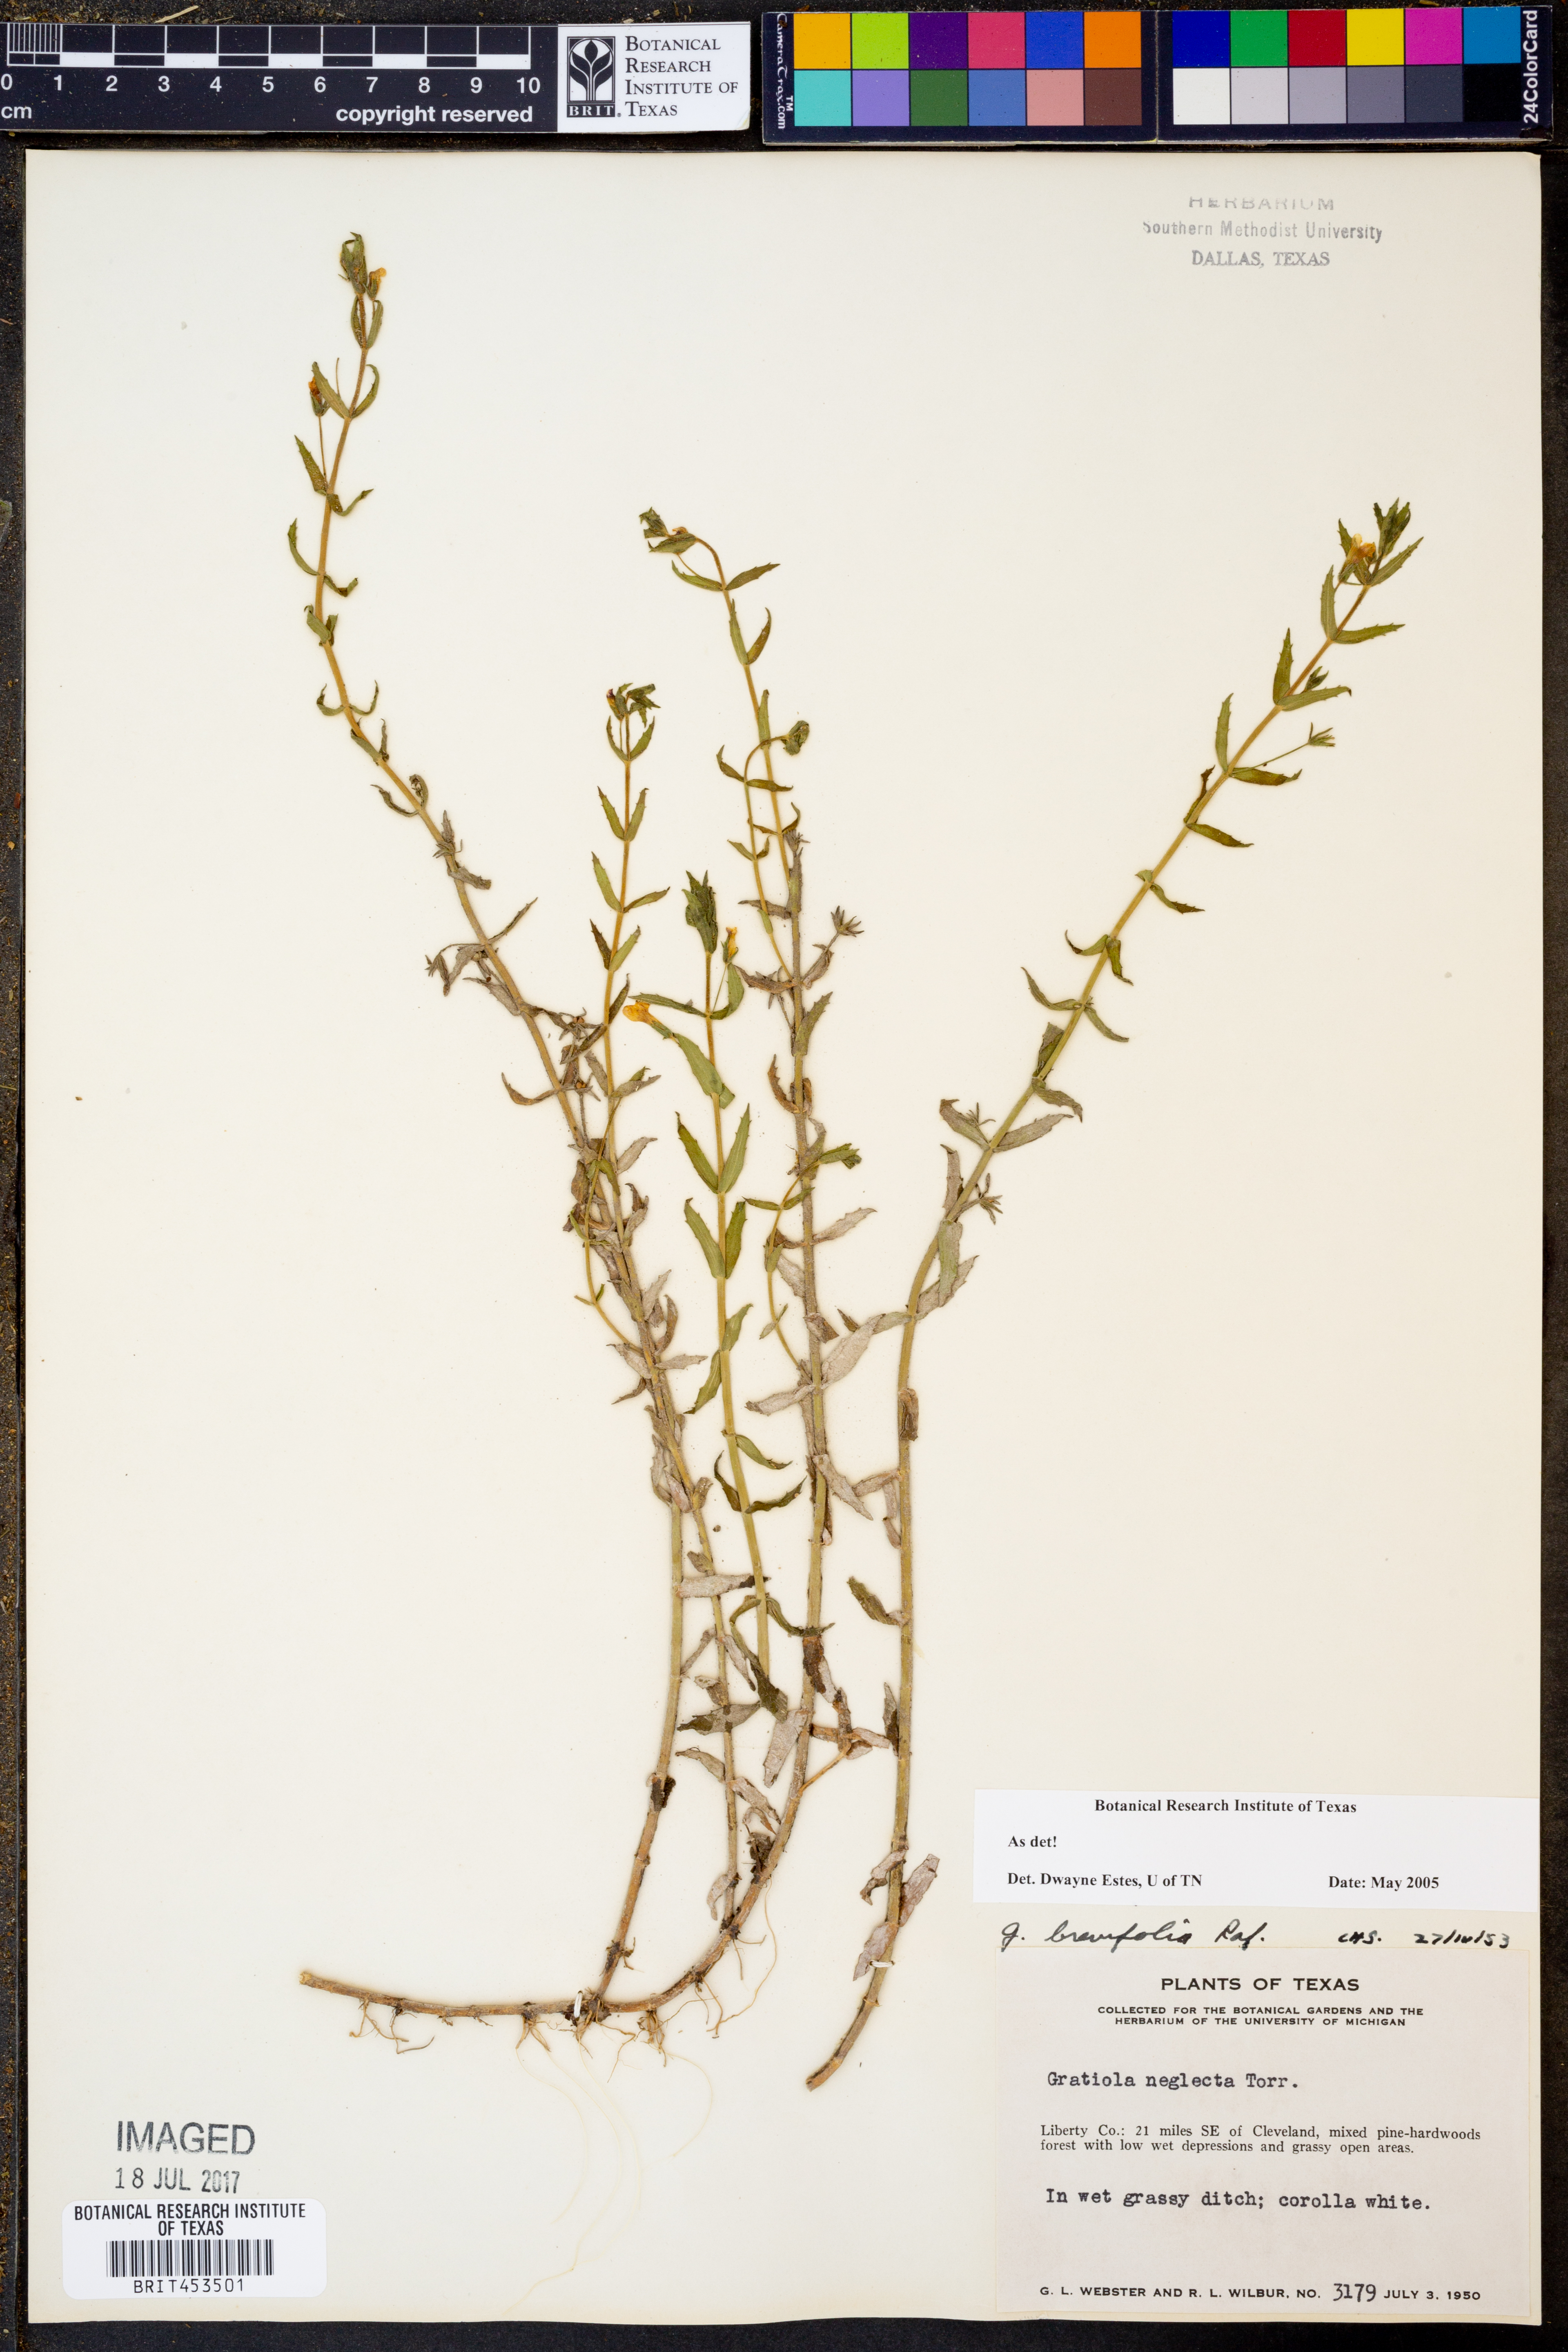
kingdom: Plantae
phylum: Tracheophyta
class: Magnoliopsida
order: Lamiales
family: Plantaginaceae
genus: Gratiola
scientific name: Gratiola neglecta
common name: American hedge-hyssop
